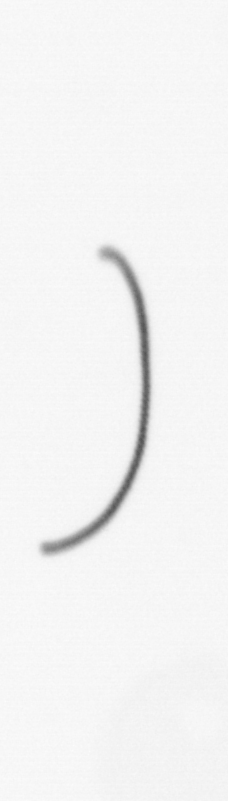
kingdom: Chromista
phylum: Ochrophyta
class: Bacillariophyceae
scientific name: Bacillariophyceae
